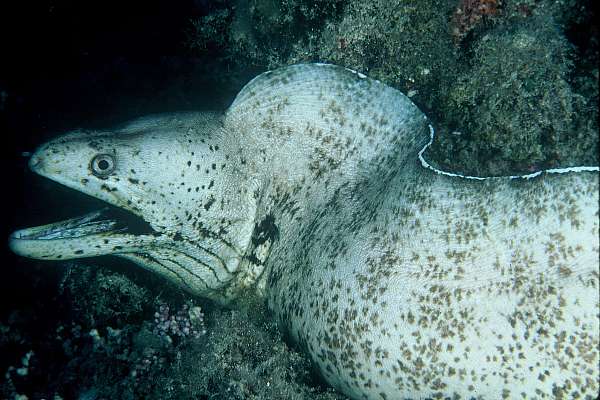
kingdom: Animalia
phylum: Chordata
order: Anguilliformes
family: Muraenidae
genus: Gymnothorax
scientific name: Gymnothorax steindachneri
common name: Brown speckled eel
